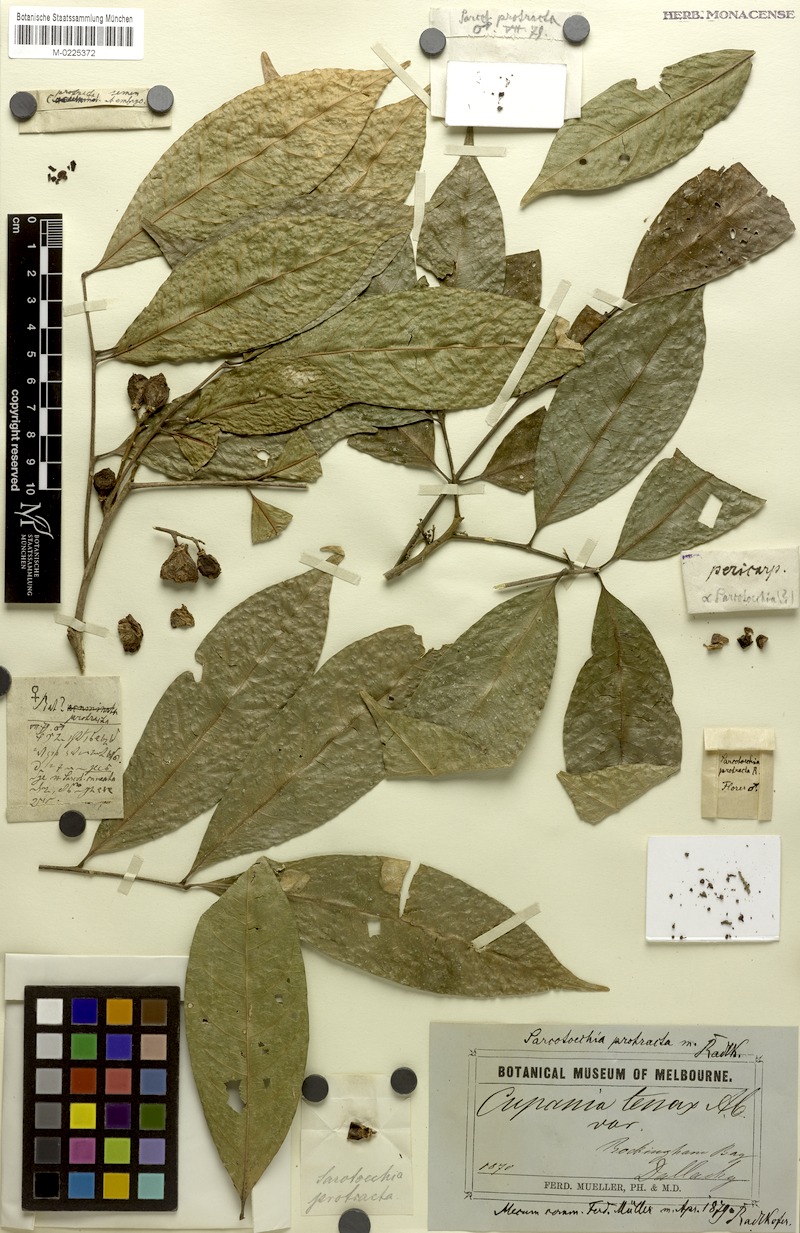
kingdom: Plantae
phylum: Tracheophyta
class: Magnoliopsida
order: Sapindales
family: Sapindaceae
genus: Sarcotoechia
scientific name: Sarcotoechia protracta
